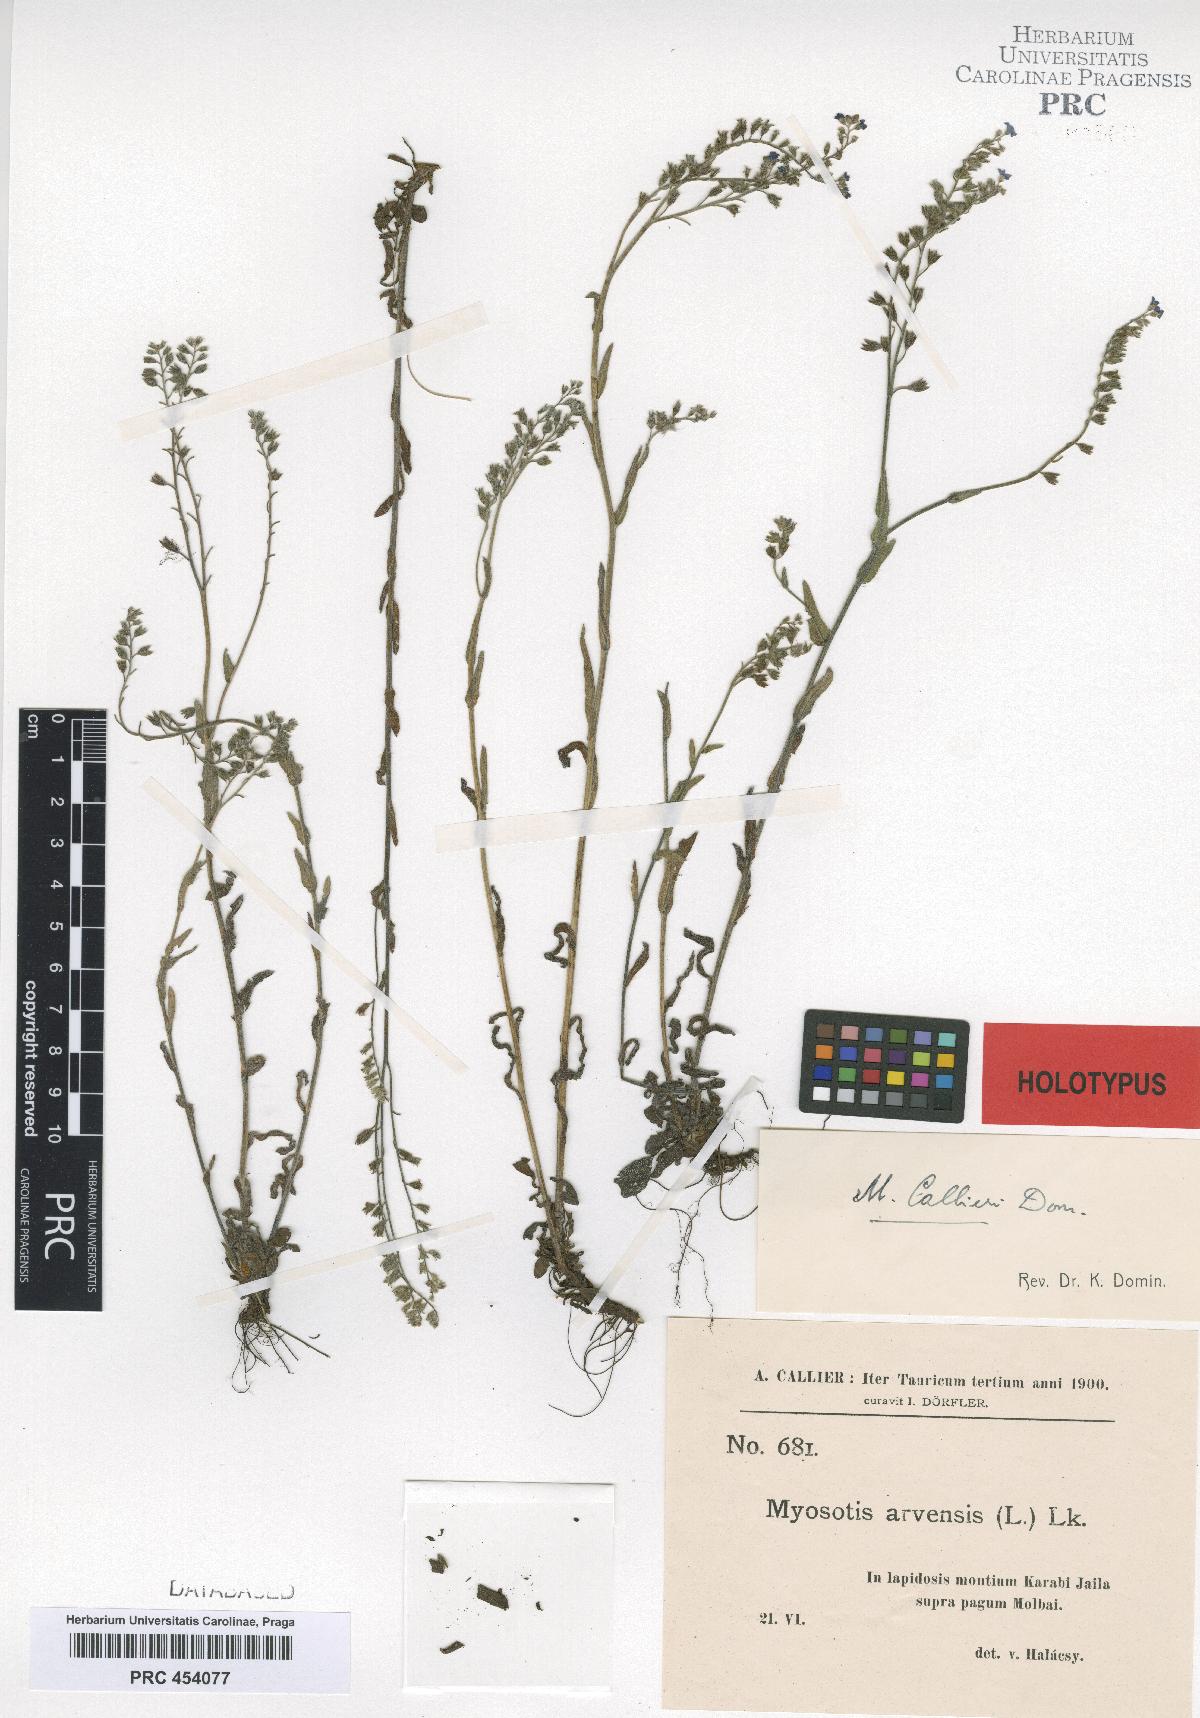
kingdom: Plantae
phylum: Tracheophyta
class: Magnoliopsida
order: Boraginales
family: Boraginaceae
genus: Myosotis
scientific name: Myosotis callieri
